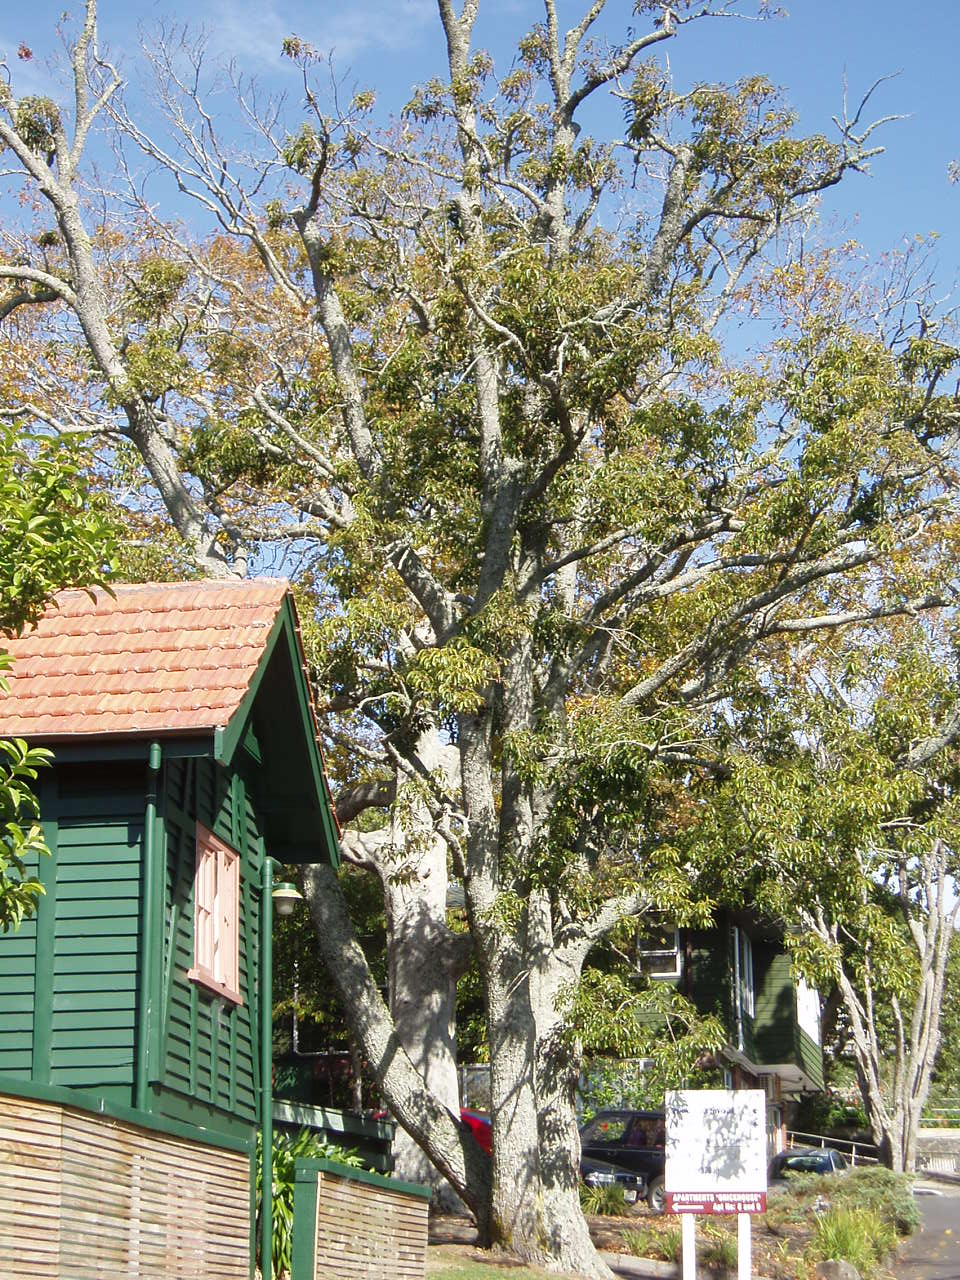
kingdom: Plantae
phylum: Tracheophyta
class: Magnoliopsida
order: Fagales
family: Fagaceae
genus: Quercus
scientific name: Quercus acutissima
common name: Sawtooth oak
